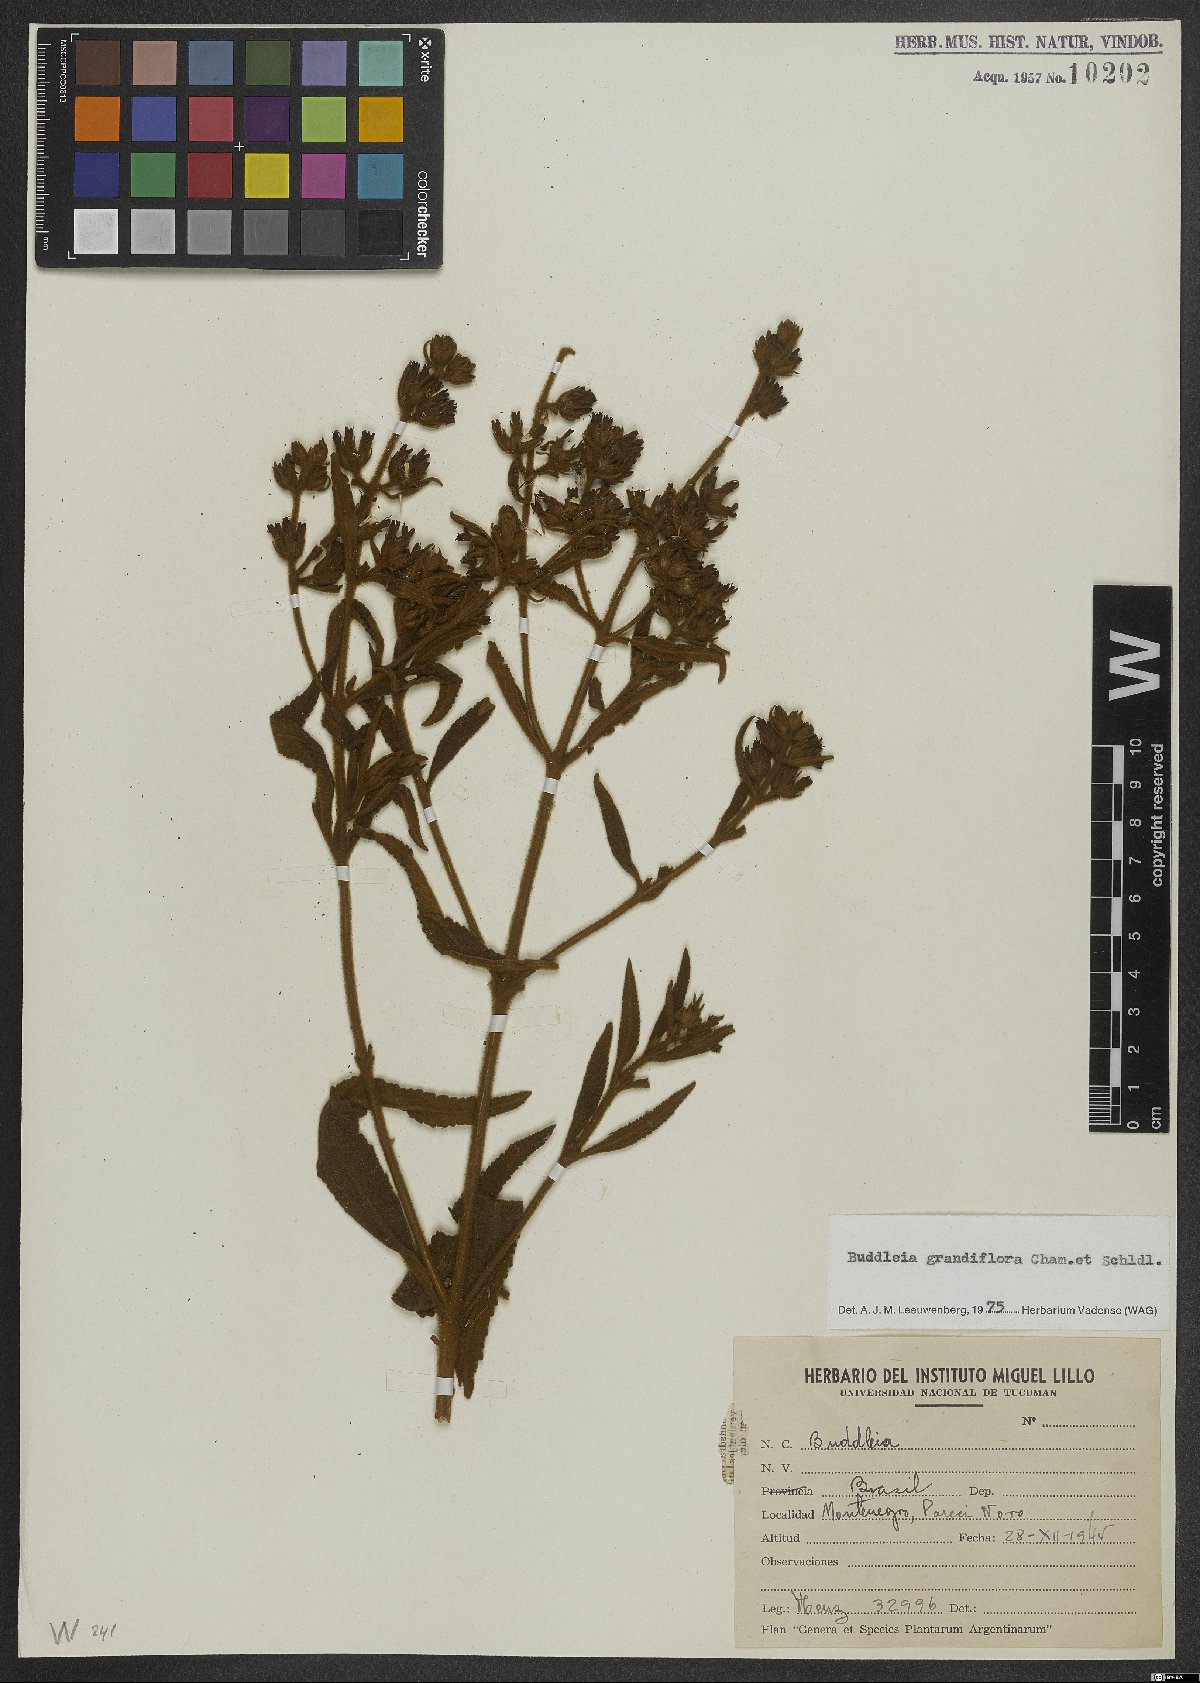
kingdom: Plantae
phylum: Tracheophyta
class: Magnoliopsida
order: Lamiales
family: Scrophulariaceae
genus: Buddleja
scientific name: Buddleja grandiflora
